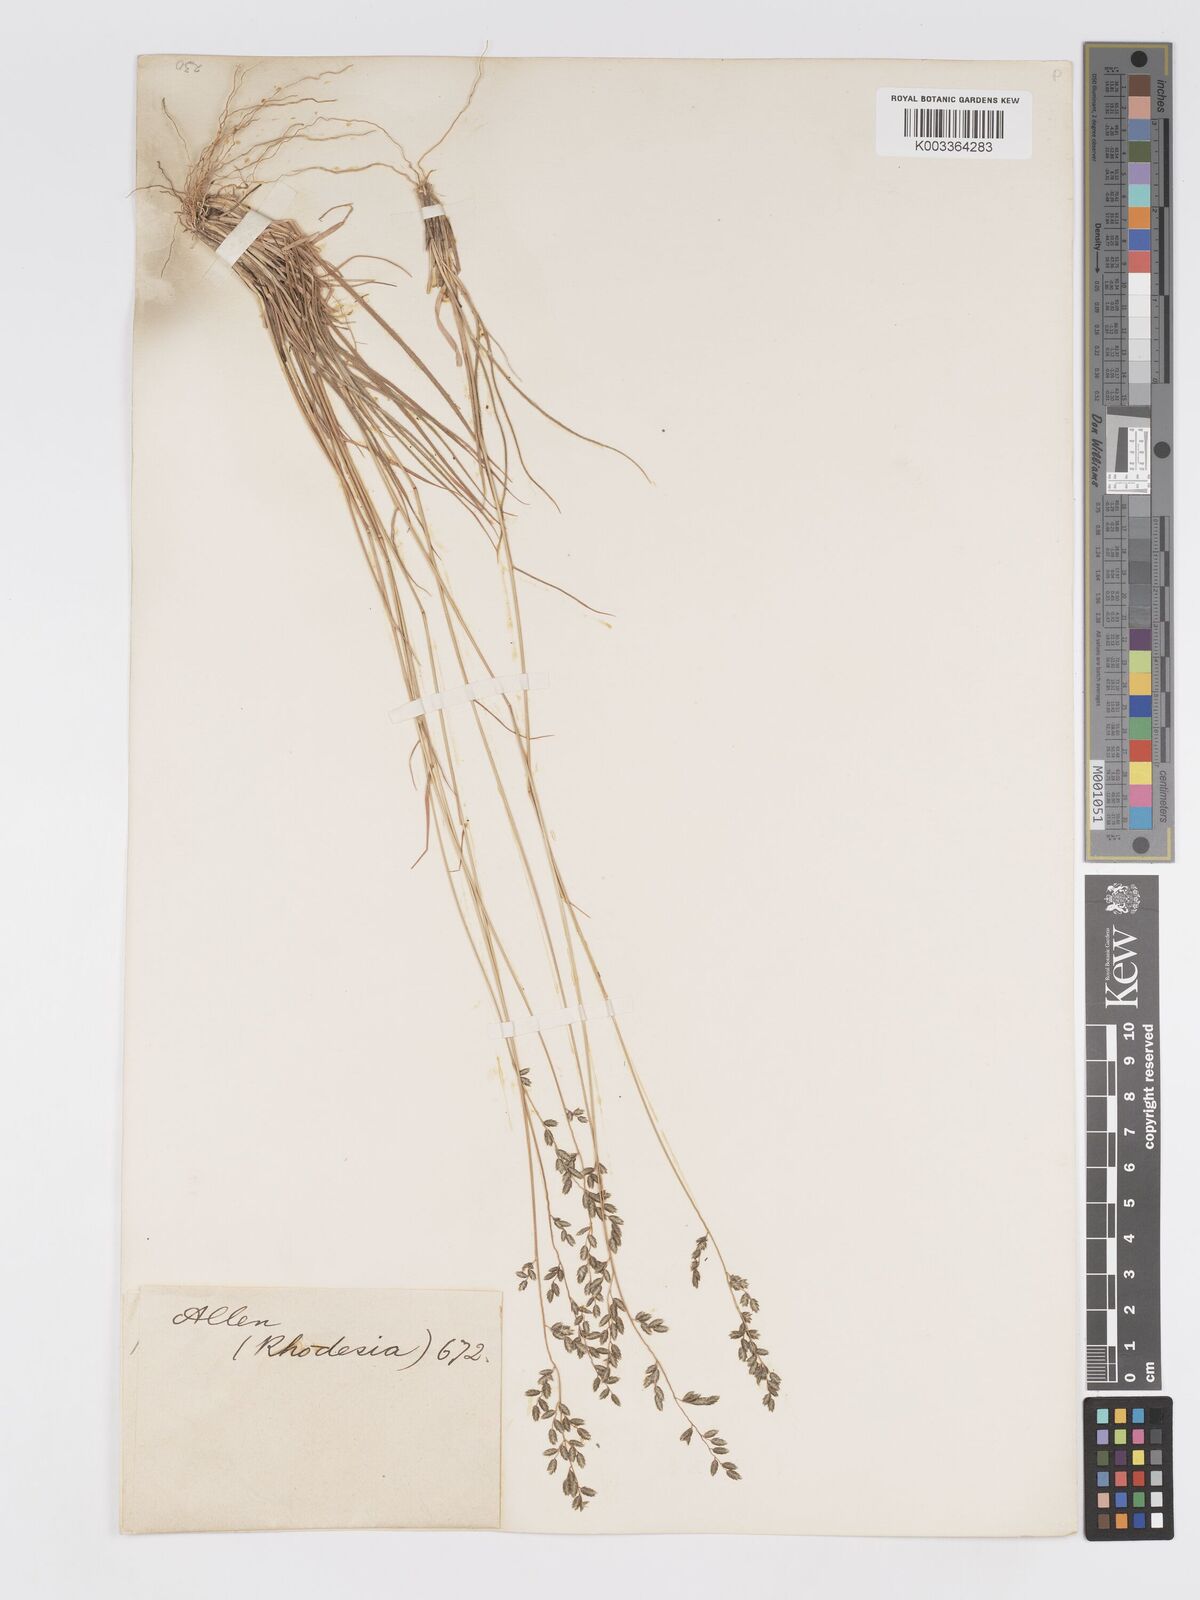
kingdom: Plantae
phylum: Tracheophyta
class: Liliopsida
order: Poales
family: Poaceae
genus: Eragrostis
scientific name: Eragrostis racemosa
